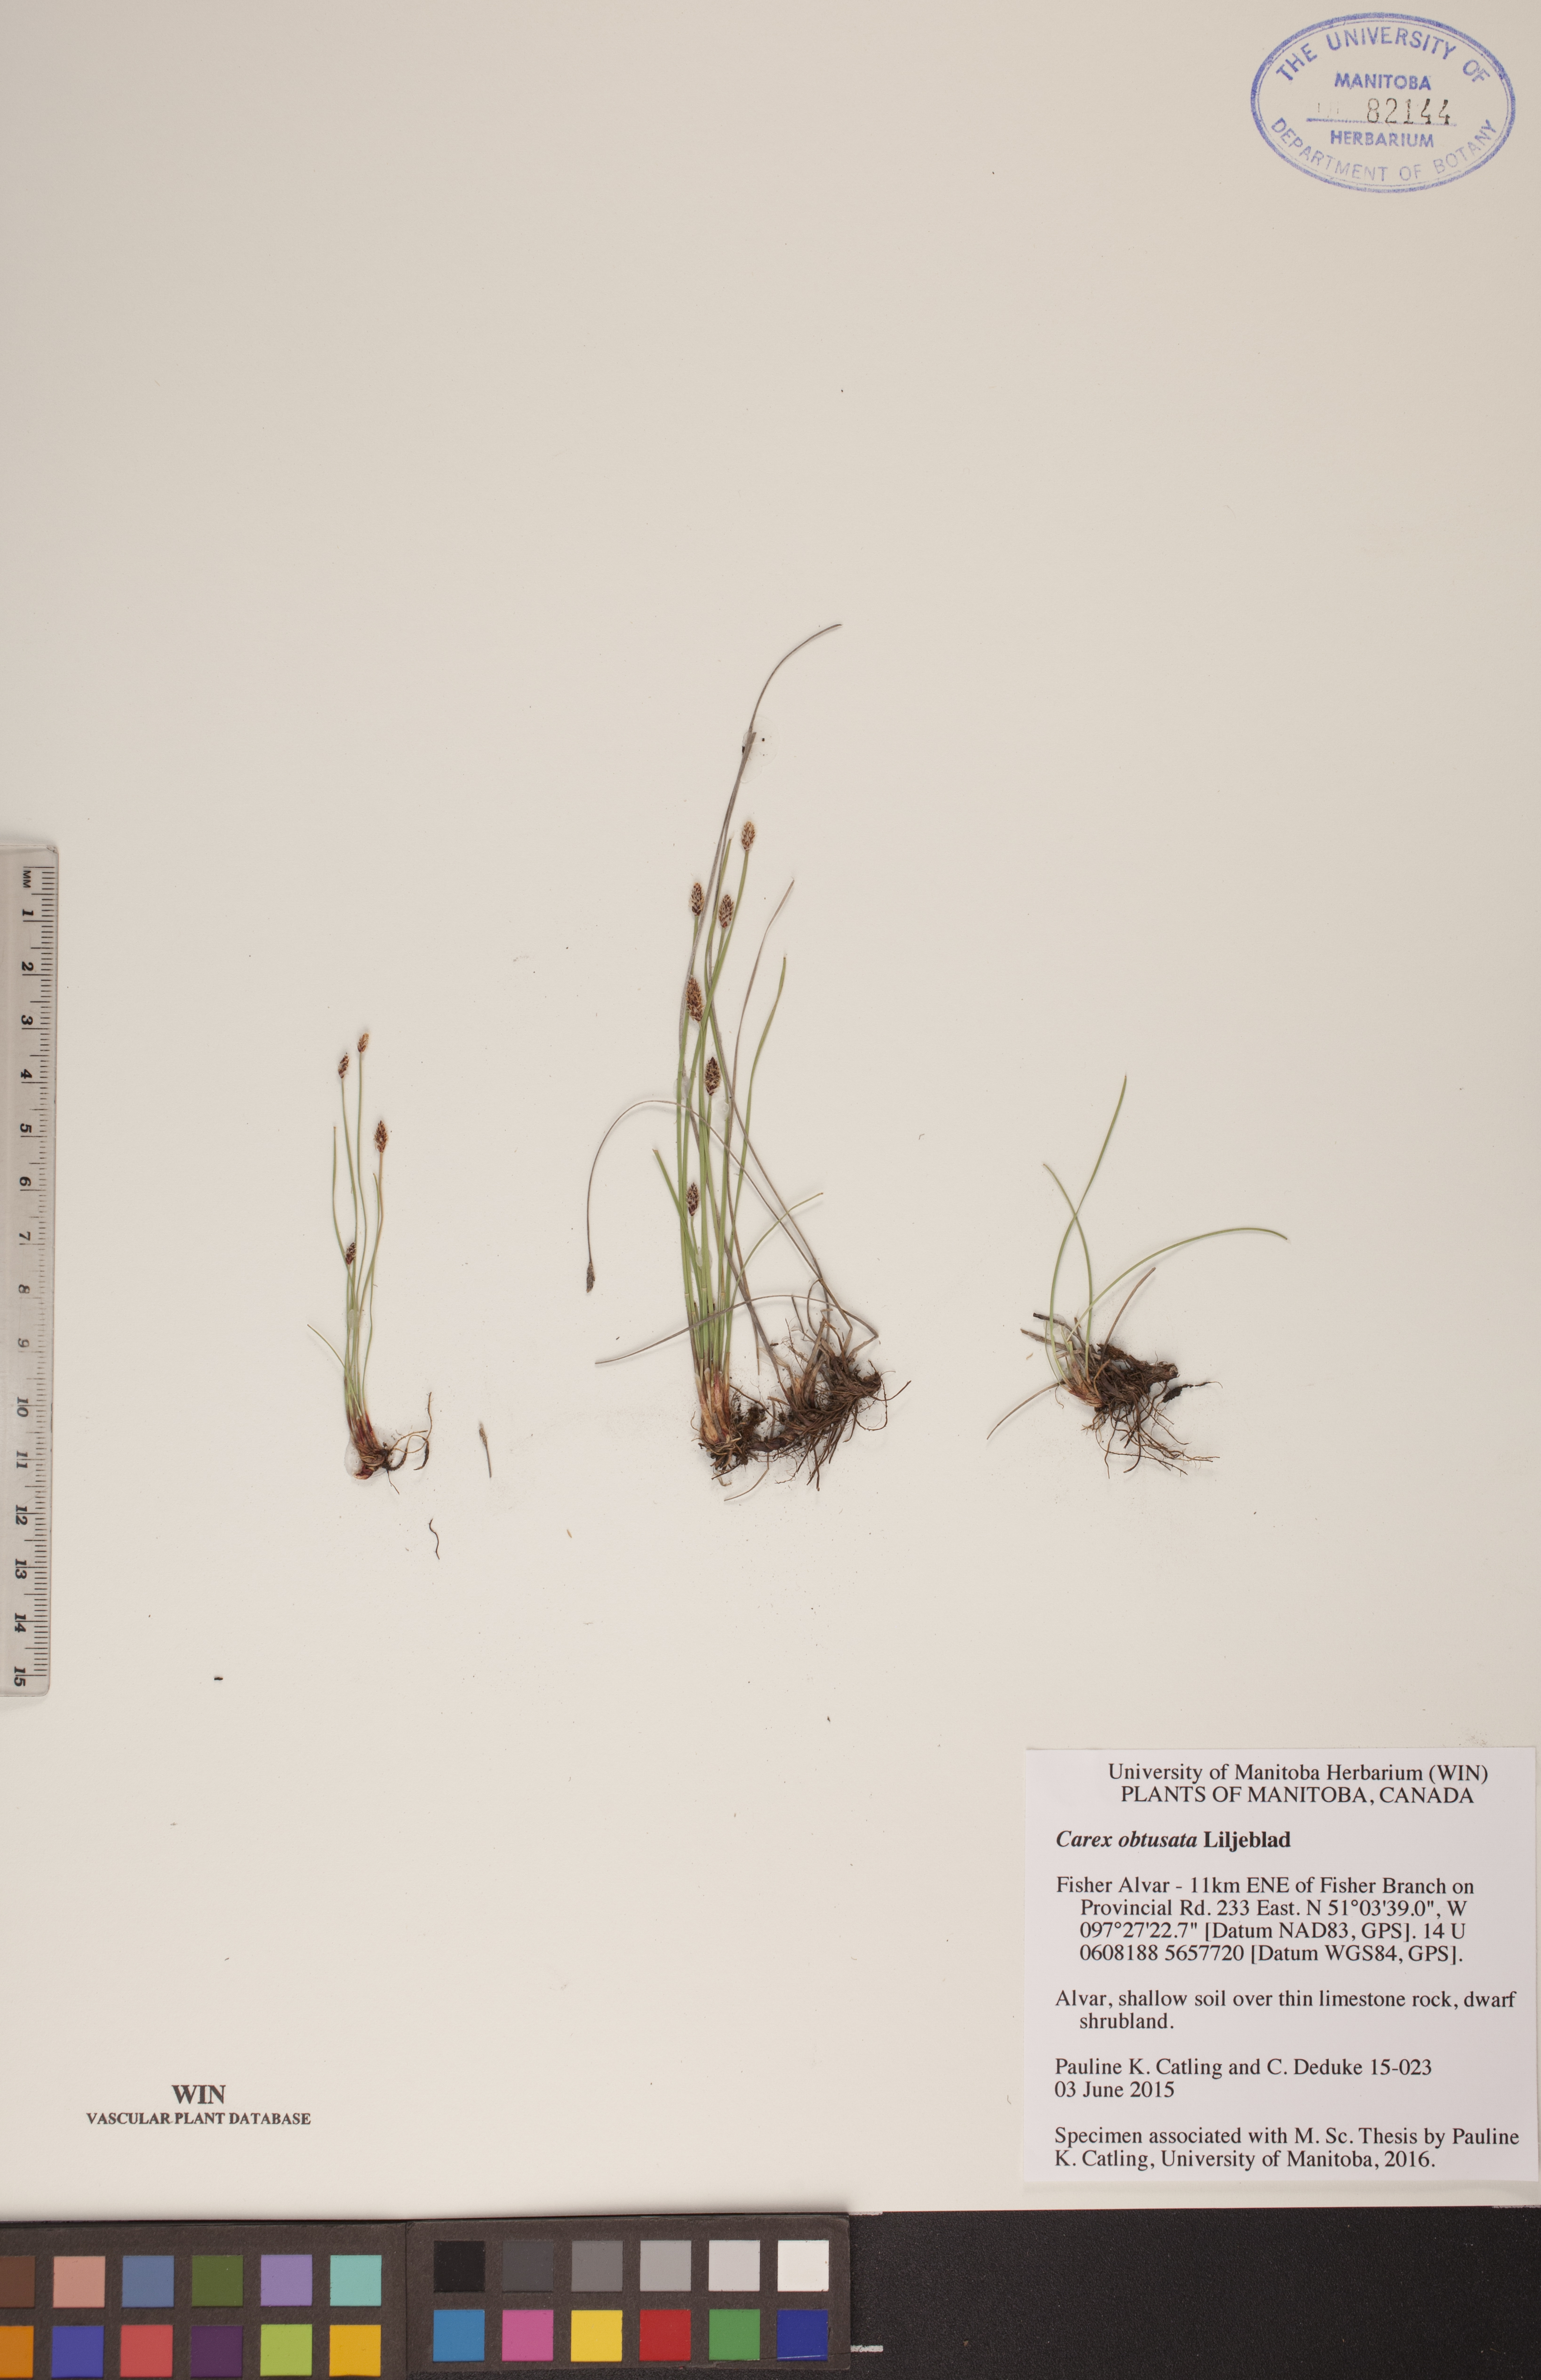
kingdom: Plantae
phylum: Tracheophyta
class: Liliopsida
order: Poales
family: Cyperaceae
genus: Carex
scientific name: Carex obtusata
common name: Blunt sedge
